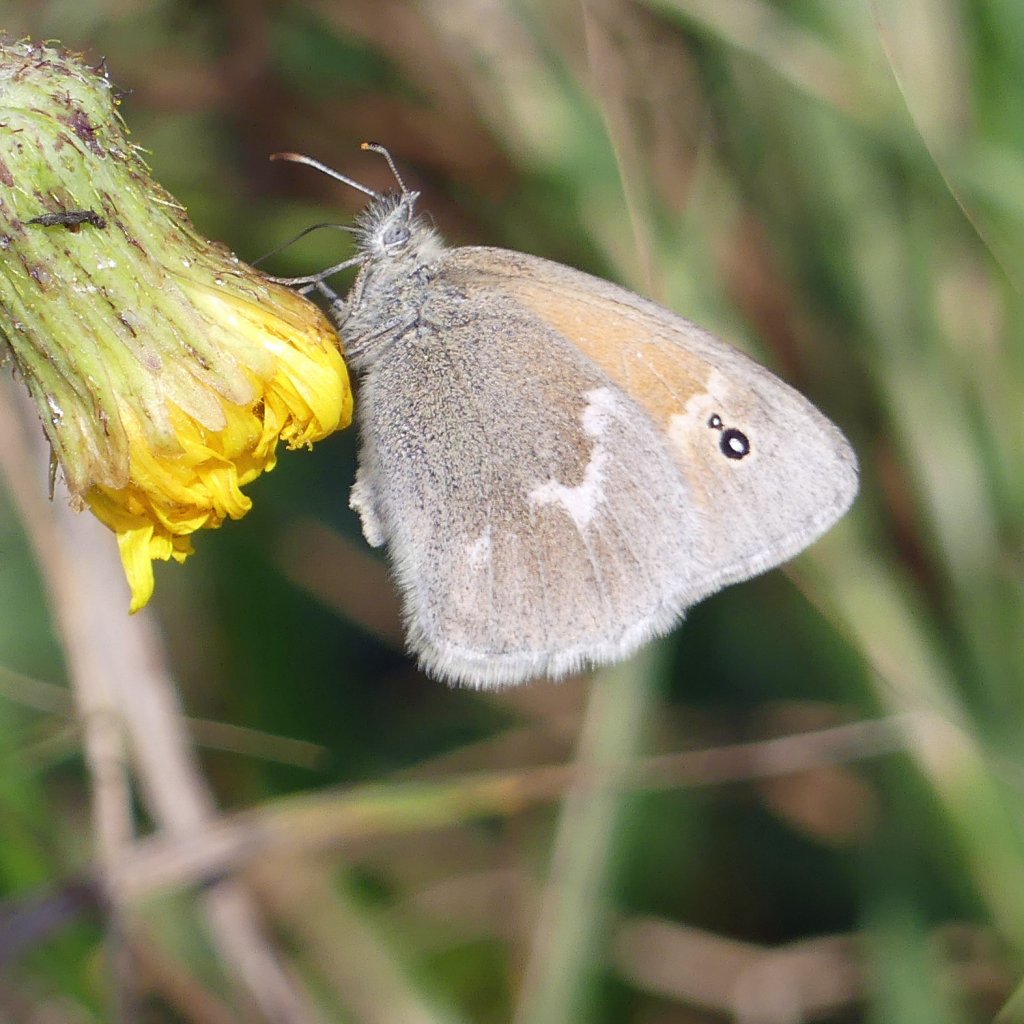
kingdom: Animalia
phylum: Arthropoda
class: Insecta
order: Lepidoptera
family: Nymphalidae
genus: Coenonympha
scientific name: Coenonympha tullia
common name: Large Heath
